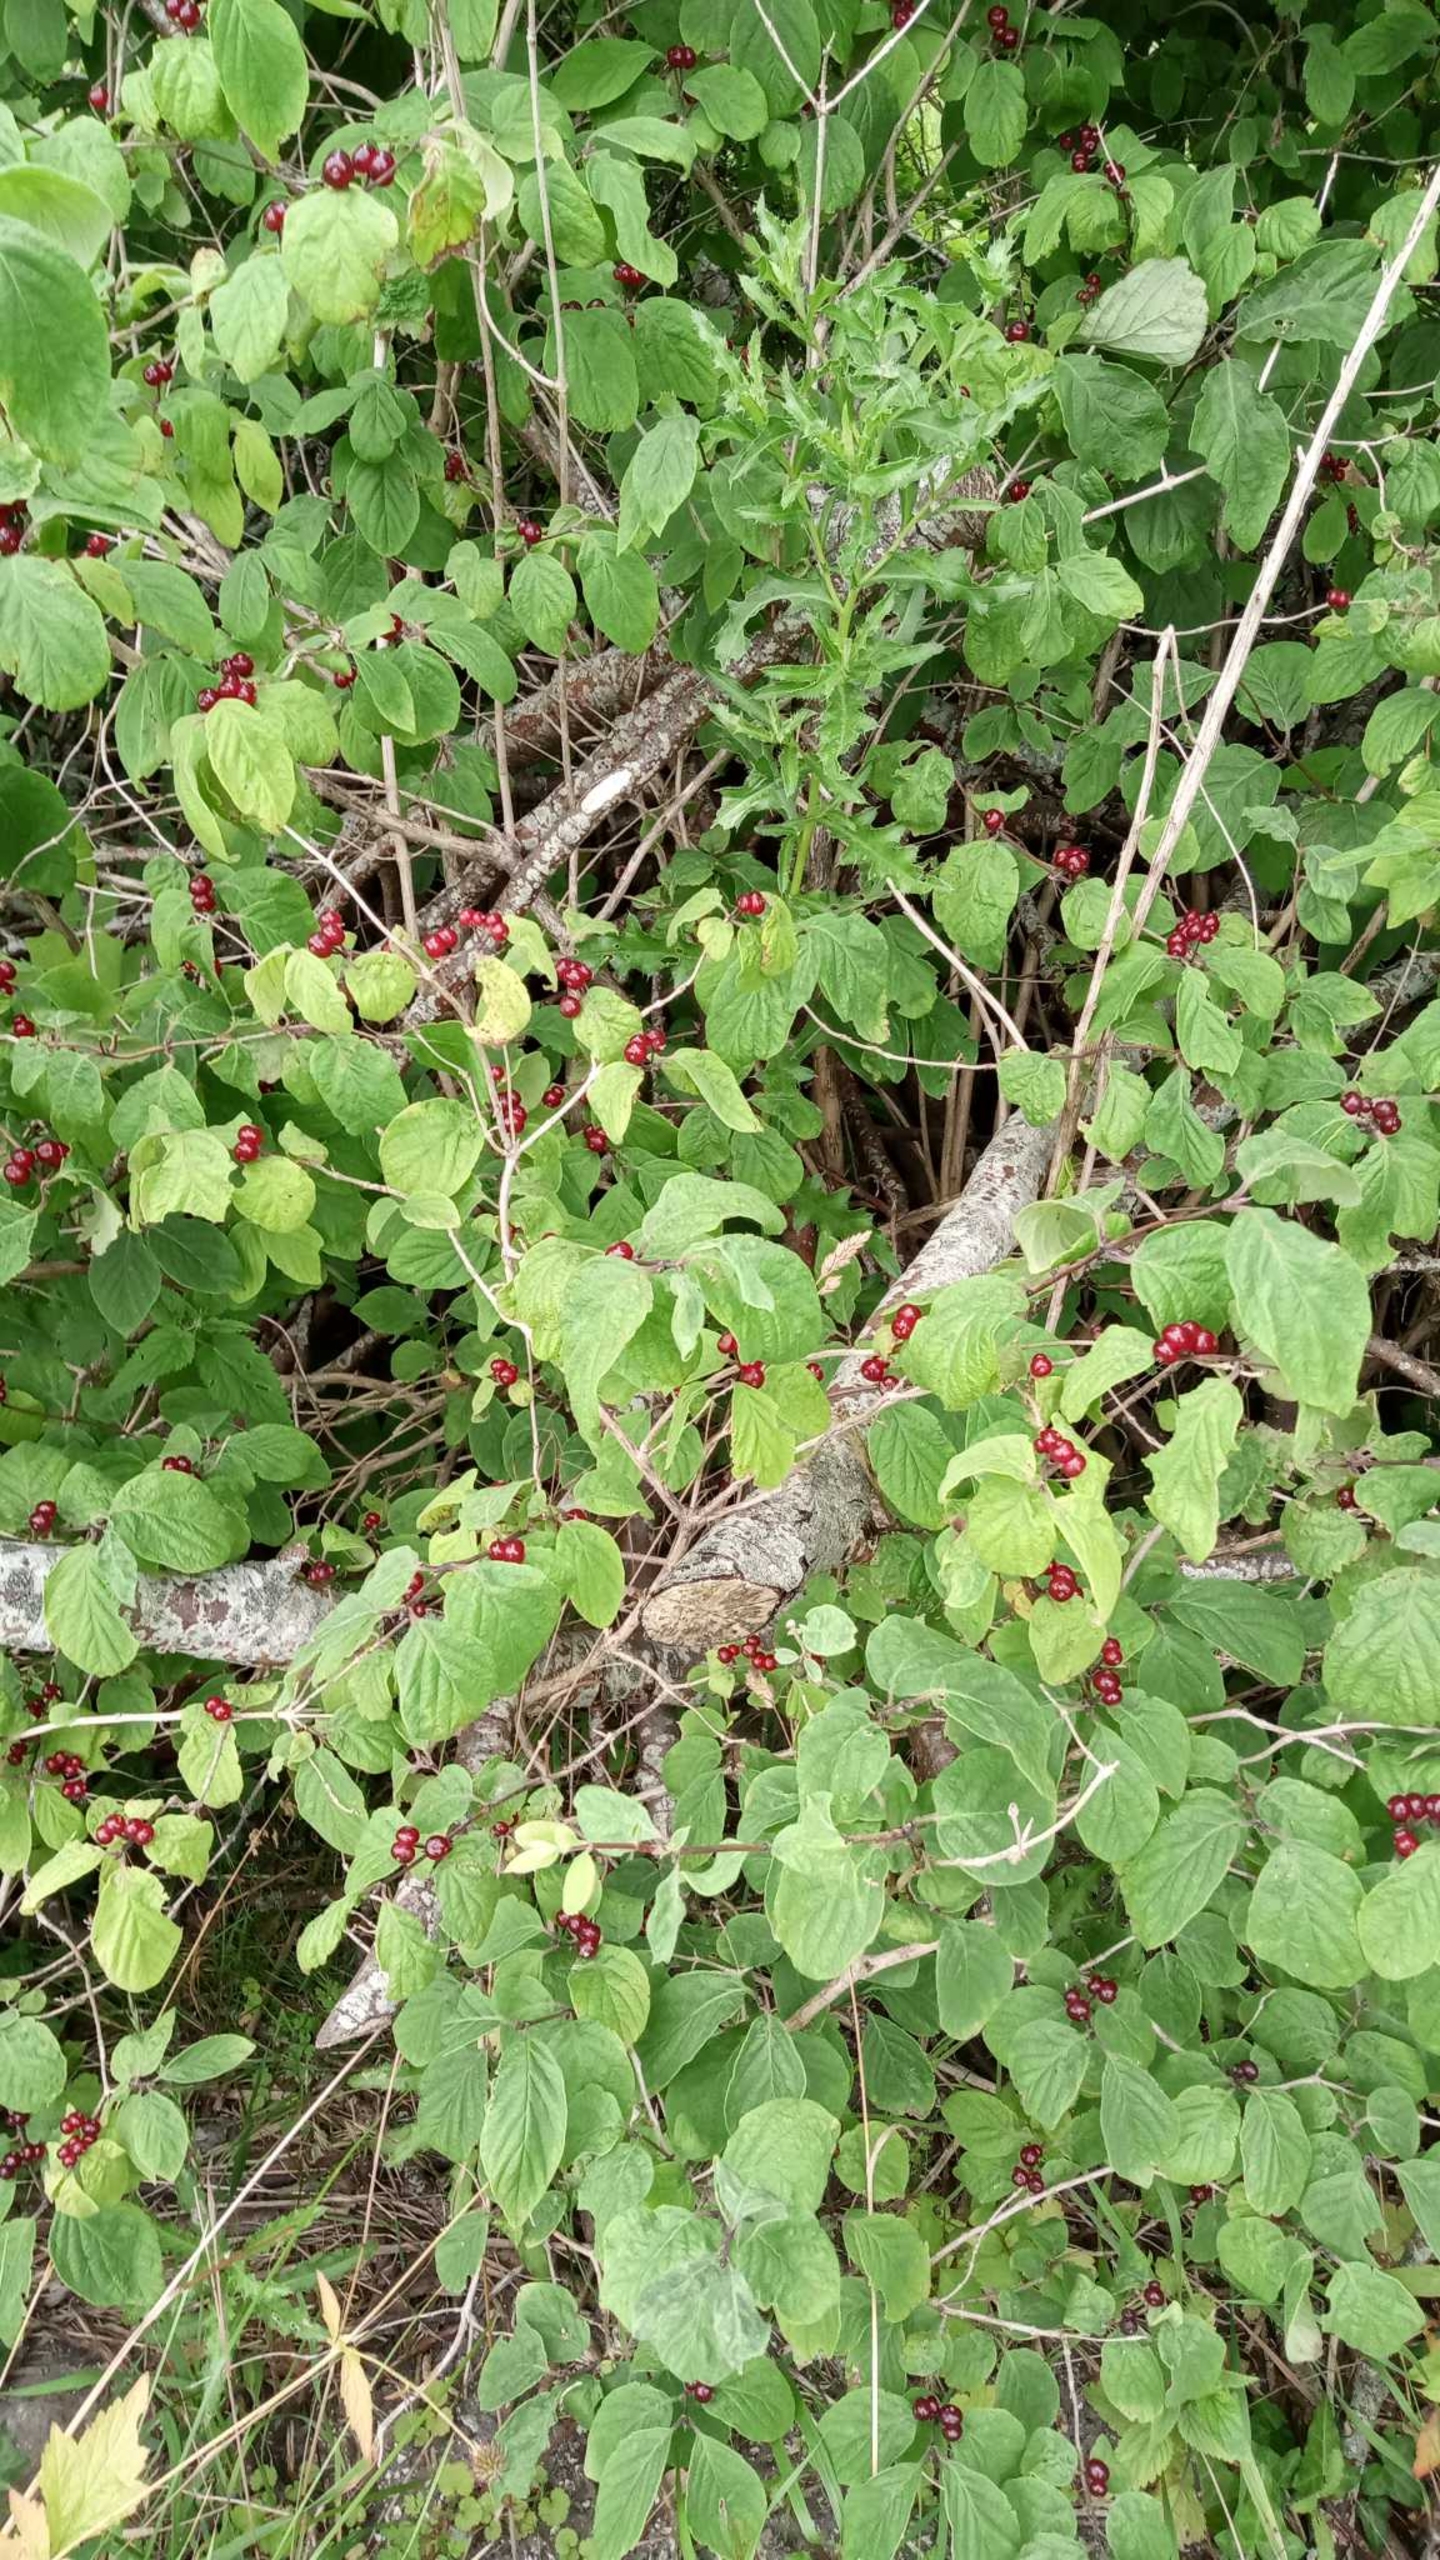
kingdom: Plantae
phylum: Tracheophyta
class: Magnoliopsida
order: Dipsacales
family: Caprifoliaceae
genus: Lonicera
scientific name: Lonicera xylosteum
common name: Dunet gedeblad
